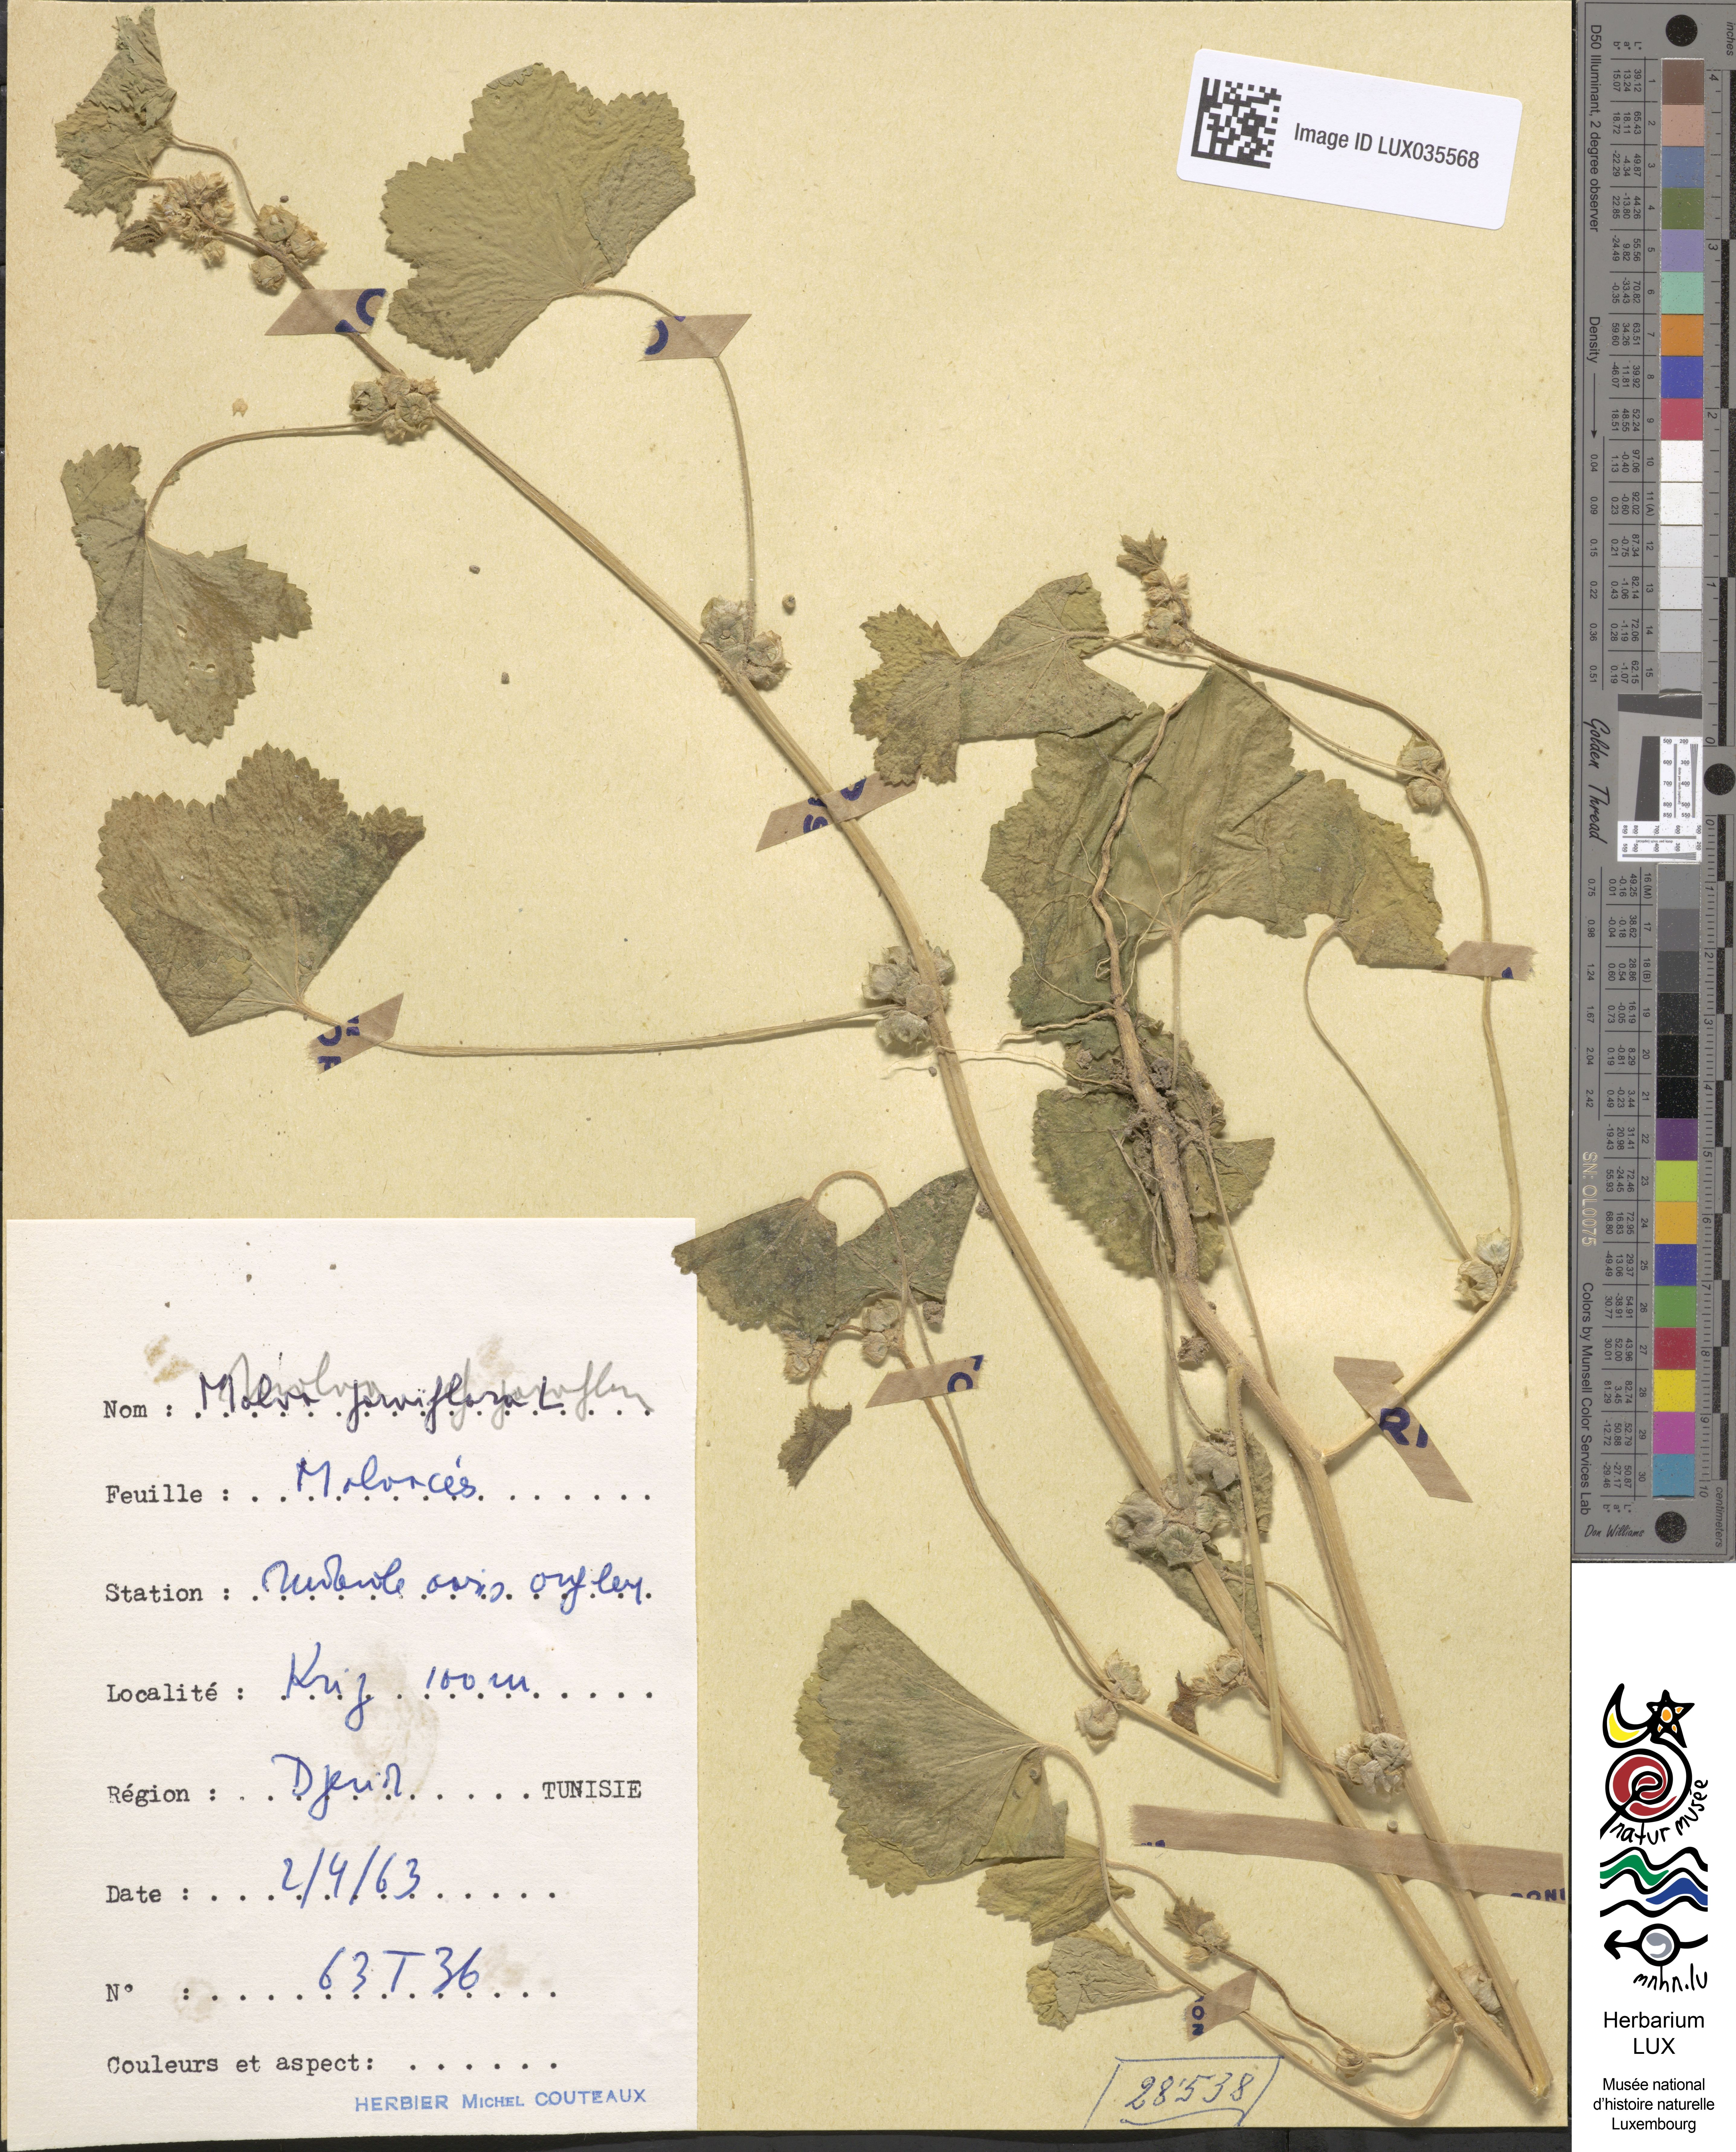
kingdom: Plantae
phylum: Tracheophyta
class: Magnoliopsida
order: Malvales
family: Malvaceae
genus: Malva
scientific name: Malva parviflora
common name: Least mallow
